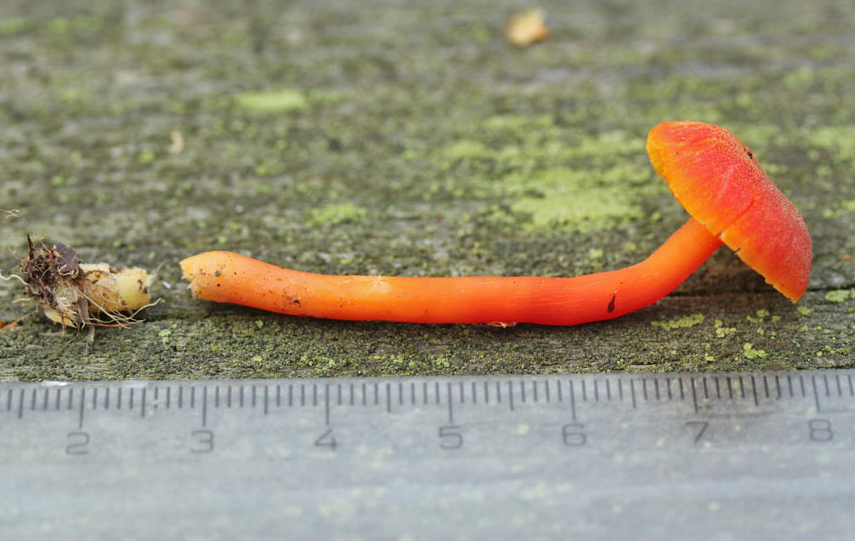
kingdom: Fungi
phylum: Basidiomycota
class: Agaricomycetes
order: Agaricales
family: Hygrophoraceae
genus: Hygrocybe
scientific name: Hygrocybe miniata
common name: mønje-vokshat
